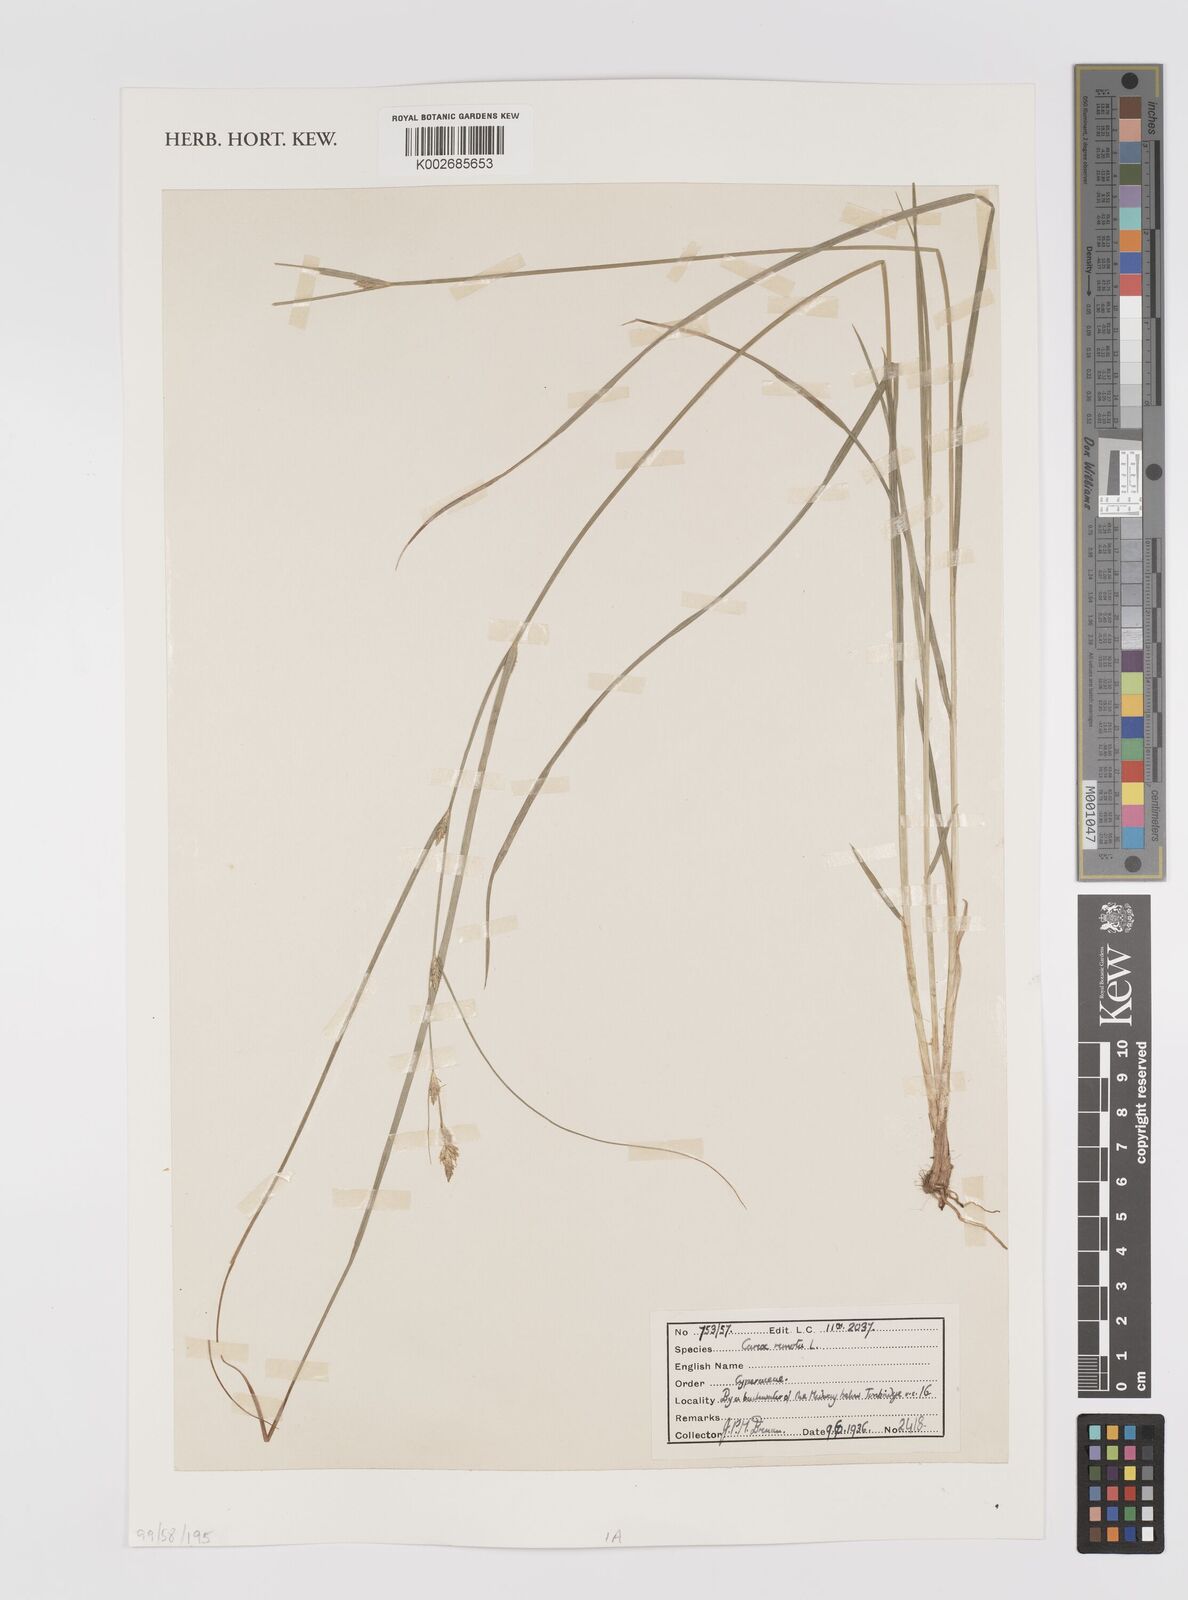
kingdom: Plantae
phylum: Tracheophyta
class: Liliopsida
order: Poales
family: Cyperaceae
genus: Carex
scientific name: Carex remota
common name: Remote sedge
